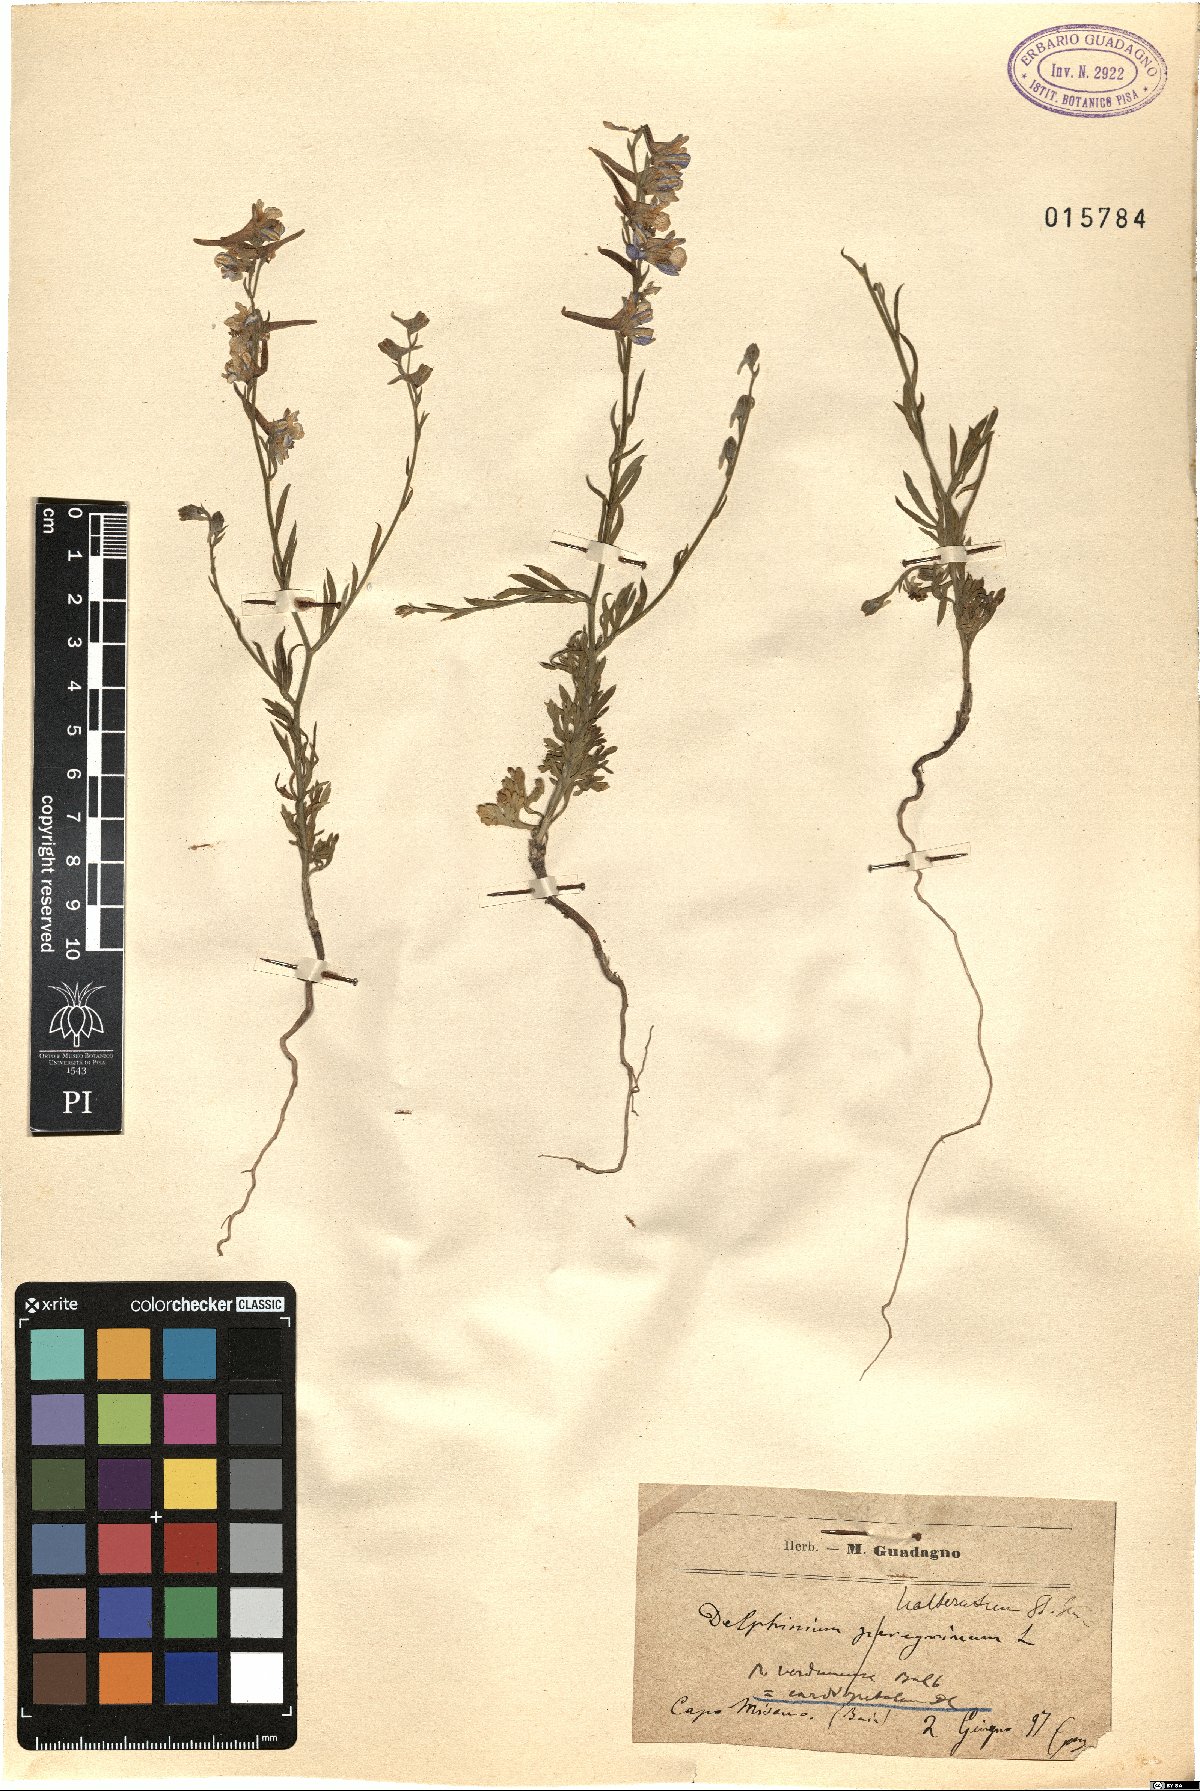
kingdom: Plantae
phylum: Tracheophyta
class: Magnoliopsida
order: Ranunculales
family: Ranunculaceae
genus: Delphinium
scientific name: Delphinium halteratum
